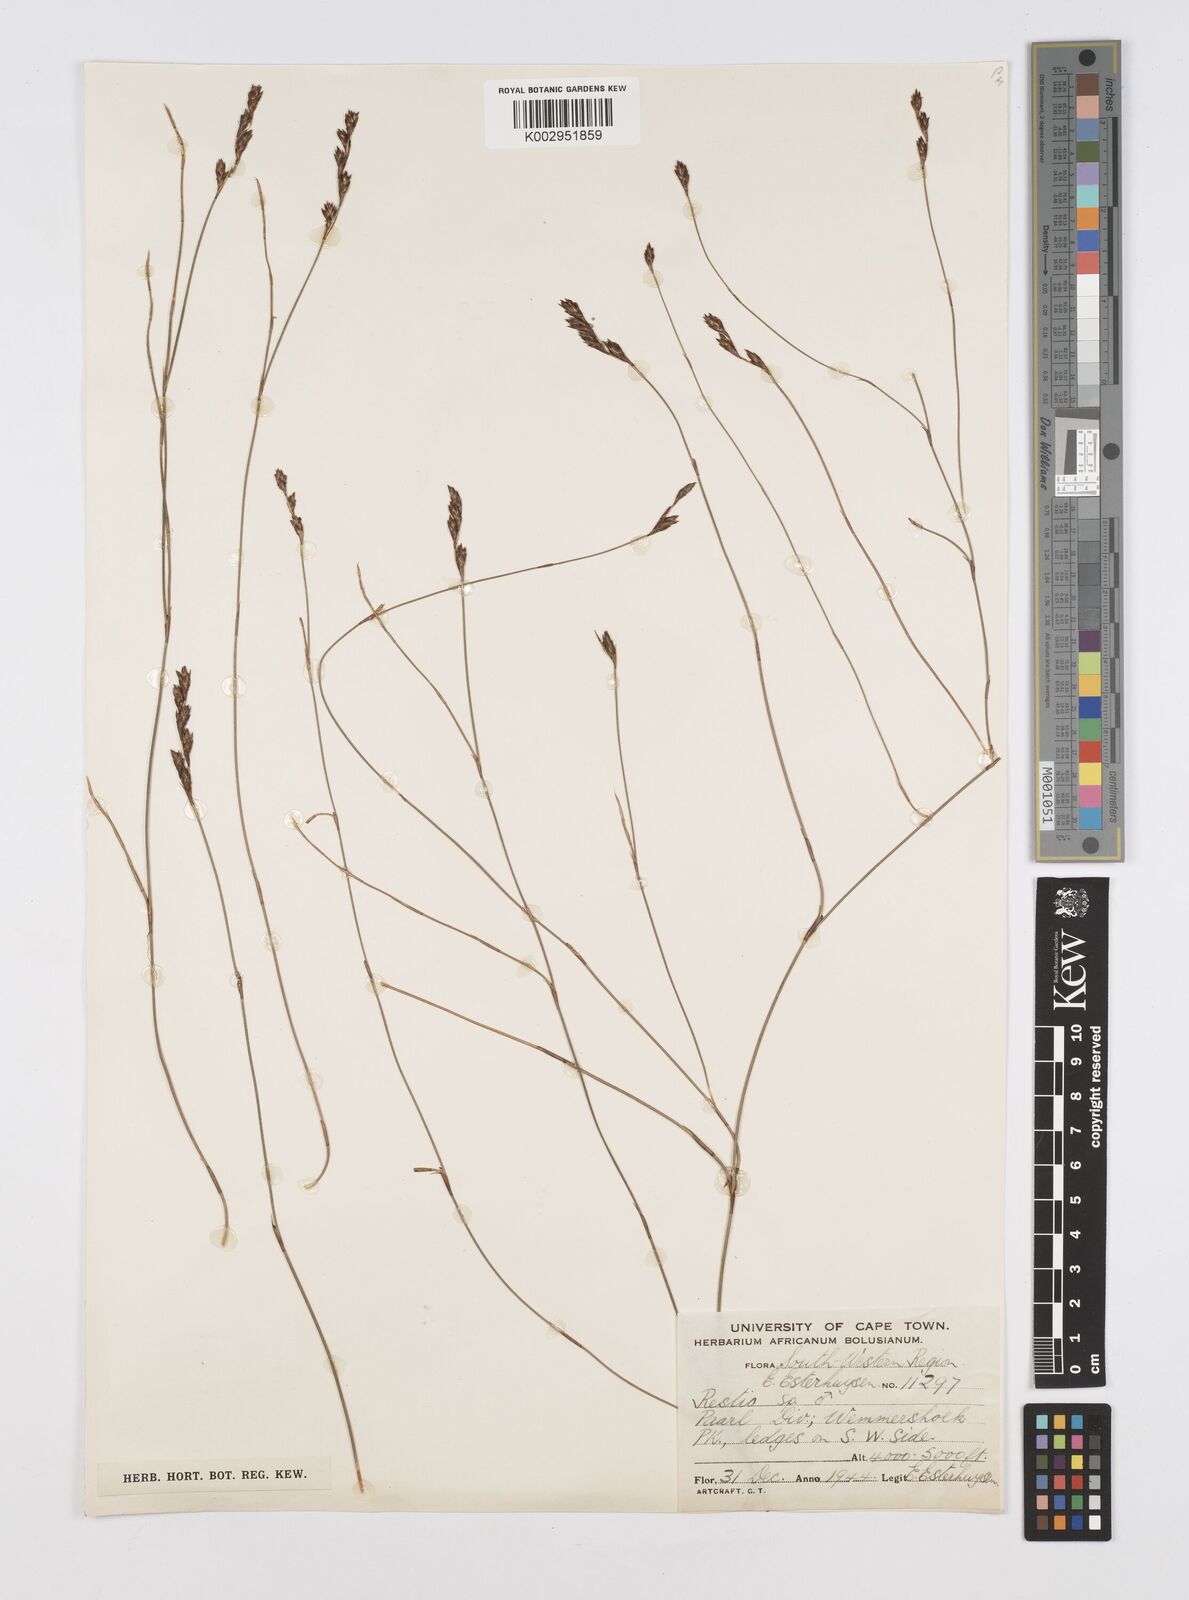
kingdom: Plantae
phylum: Tracheophyta
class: Liliopsida
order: Poales
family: Restionaceae
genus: Restio
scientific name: Restio
